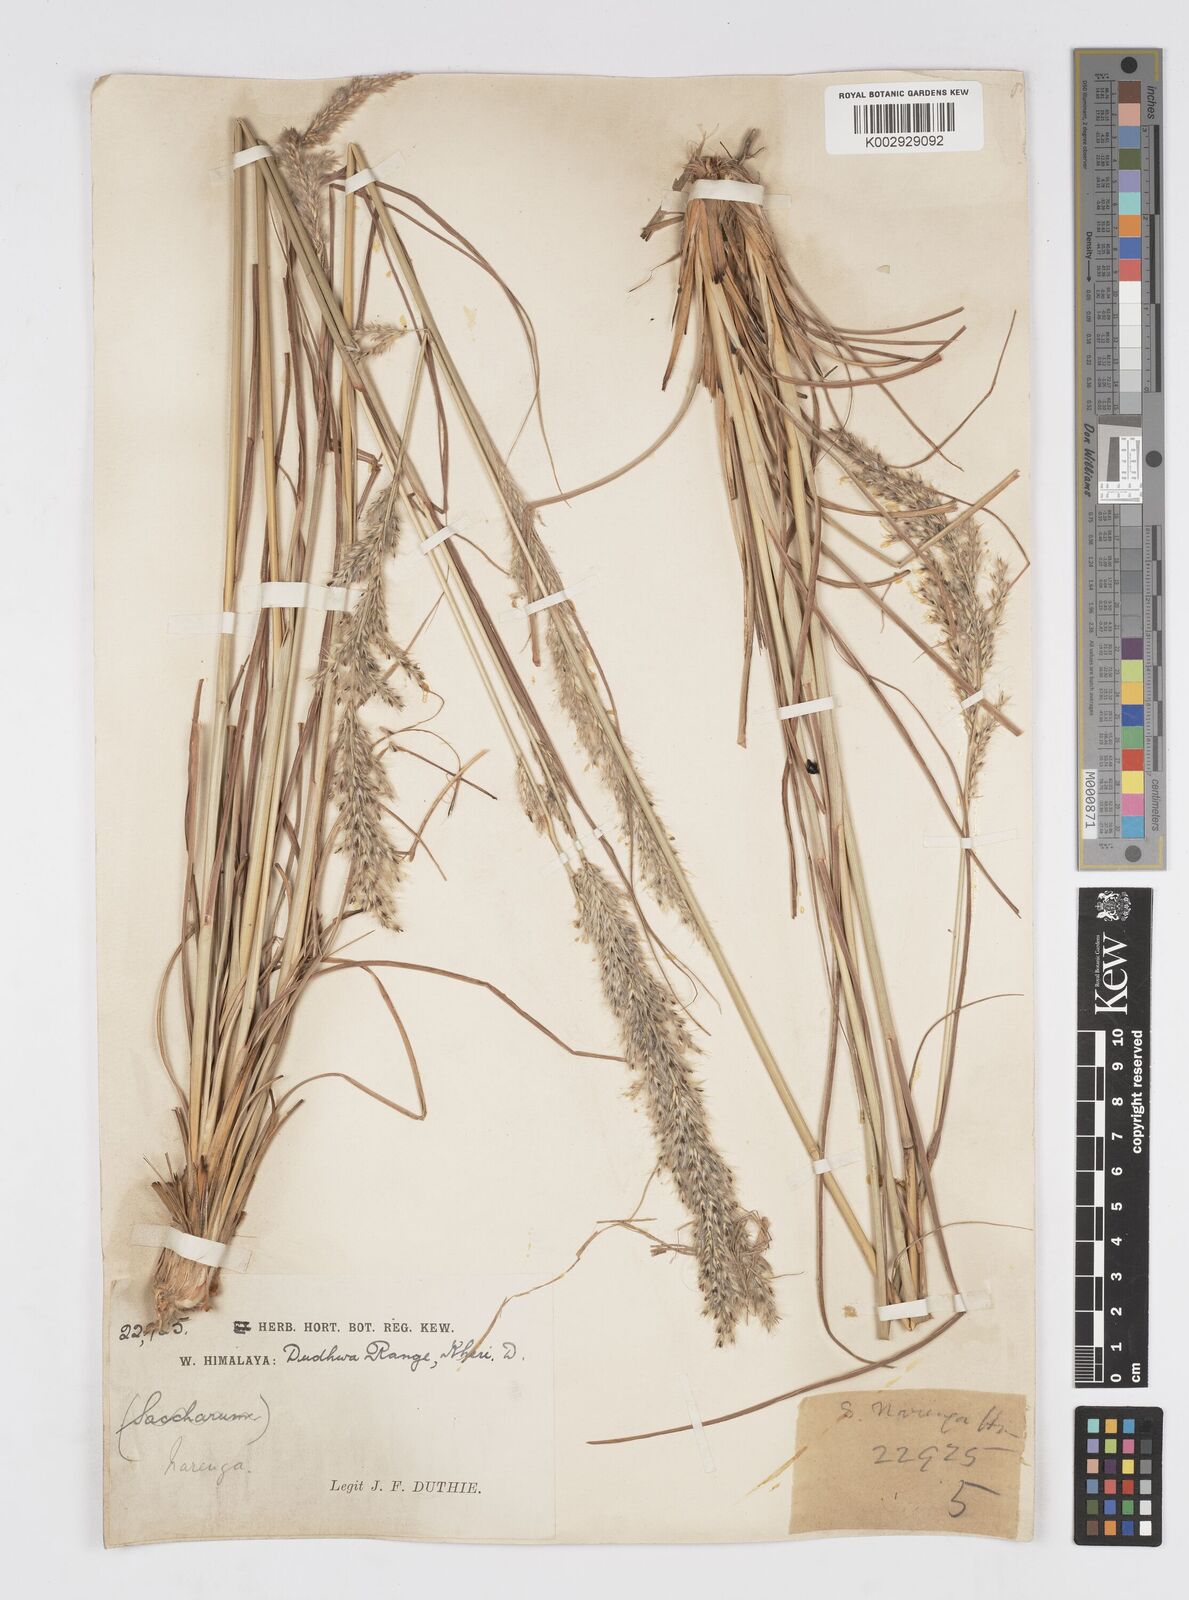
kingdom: Plantae
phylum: Tracheophyta
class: Liliopsida
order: Poales
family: Poaceae
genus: Tripidium
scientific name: Tripidium bengalense
